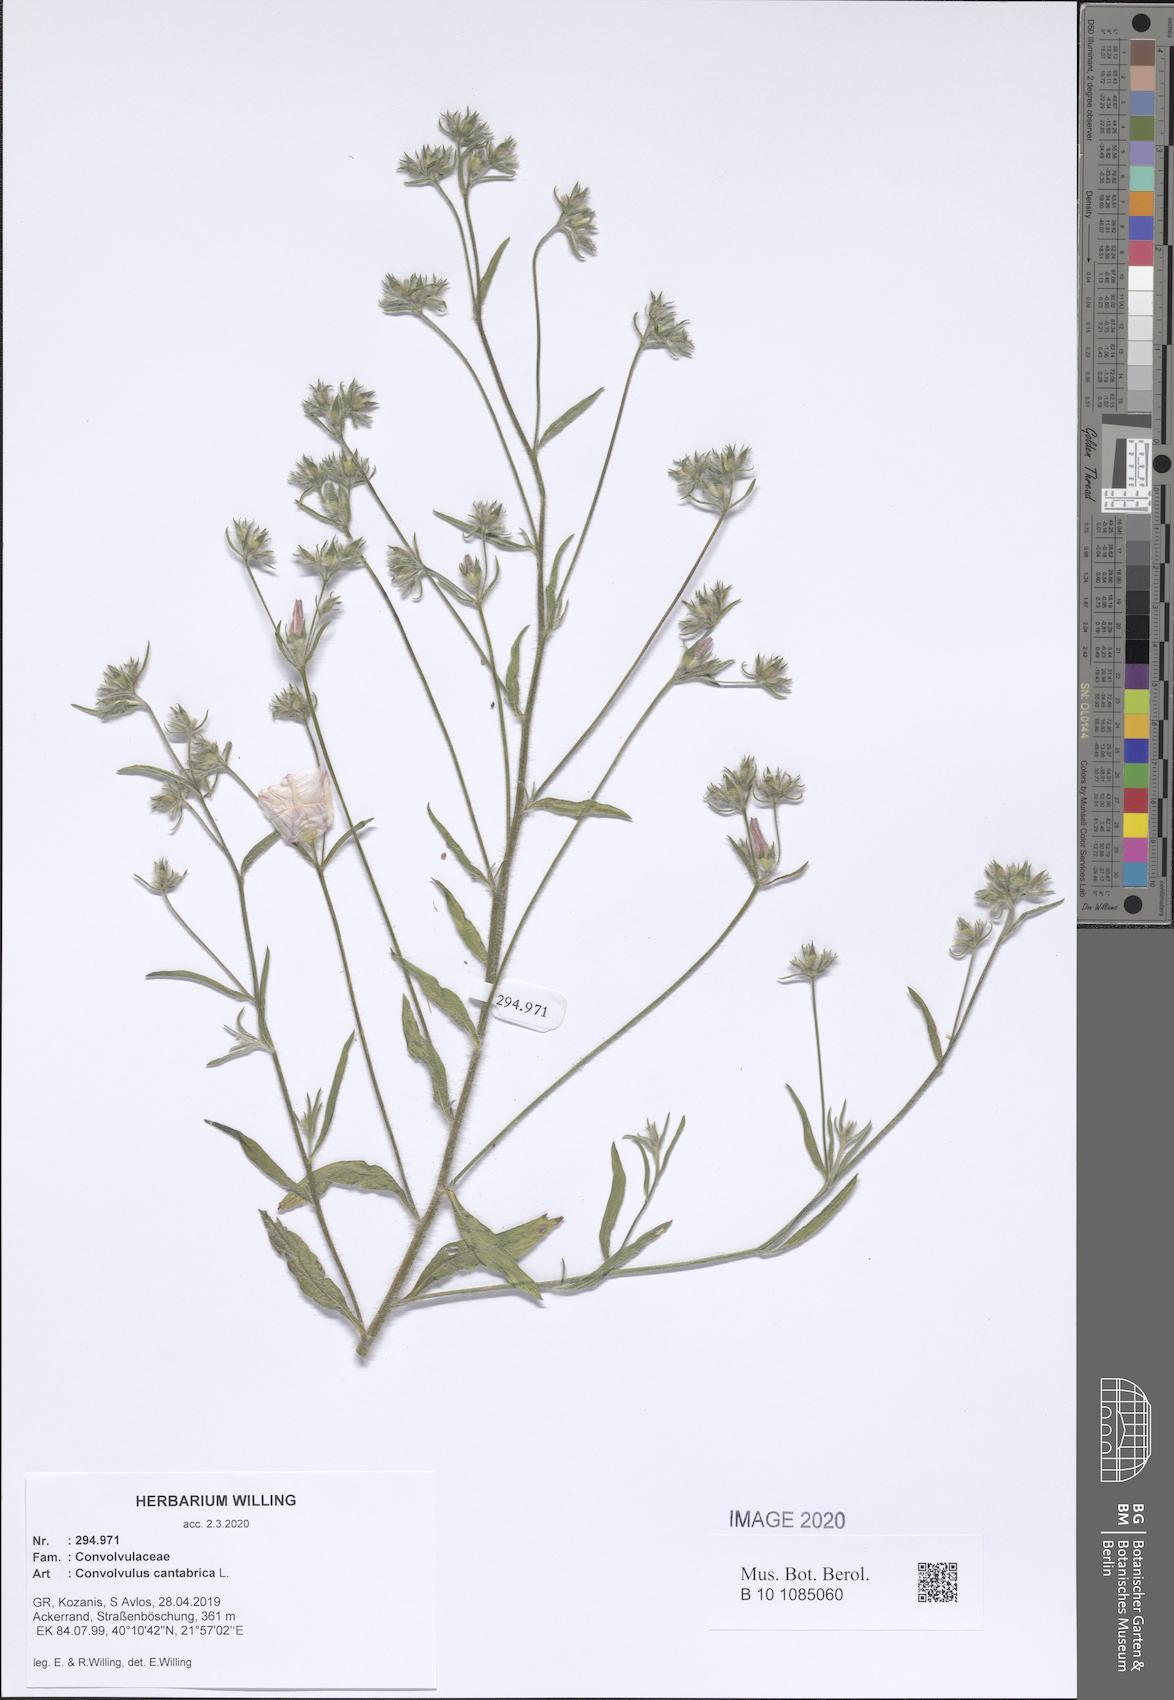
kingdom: Plantae
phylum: Tracheophyta
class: Magnoliopsida
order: Solanales
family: Convolvulaceae
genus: Convolvulus
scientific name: Convolvulus cantabrica
